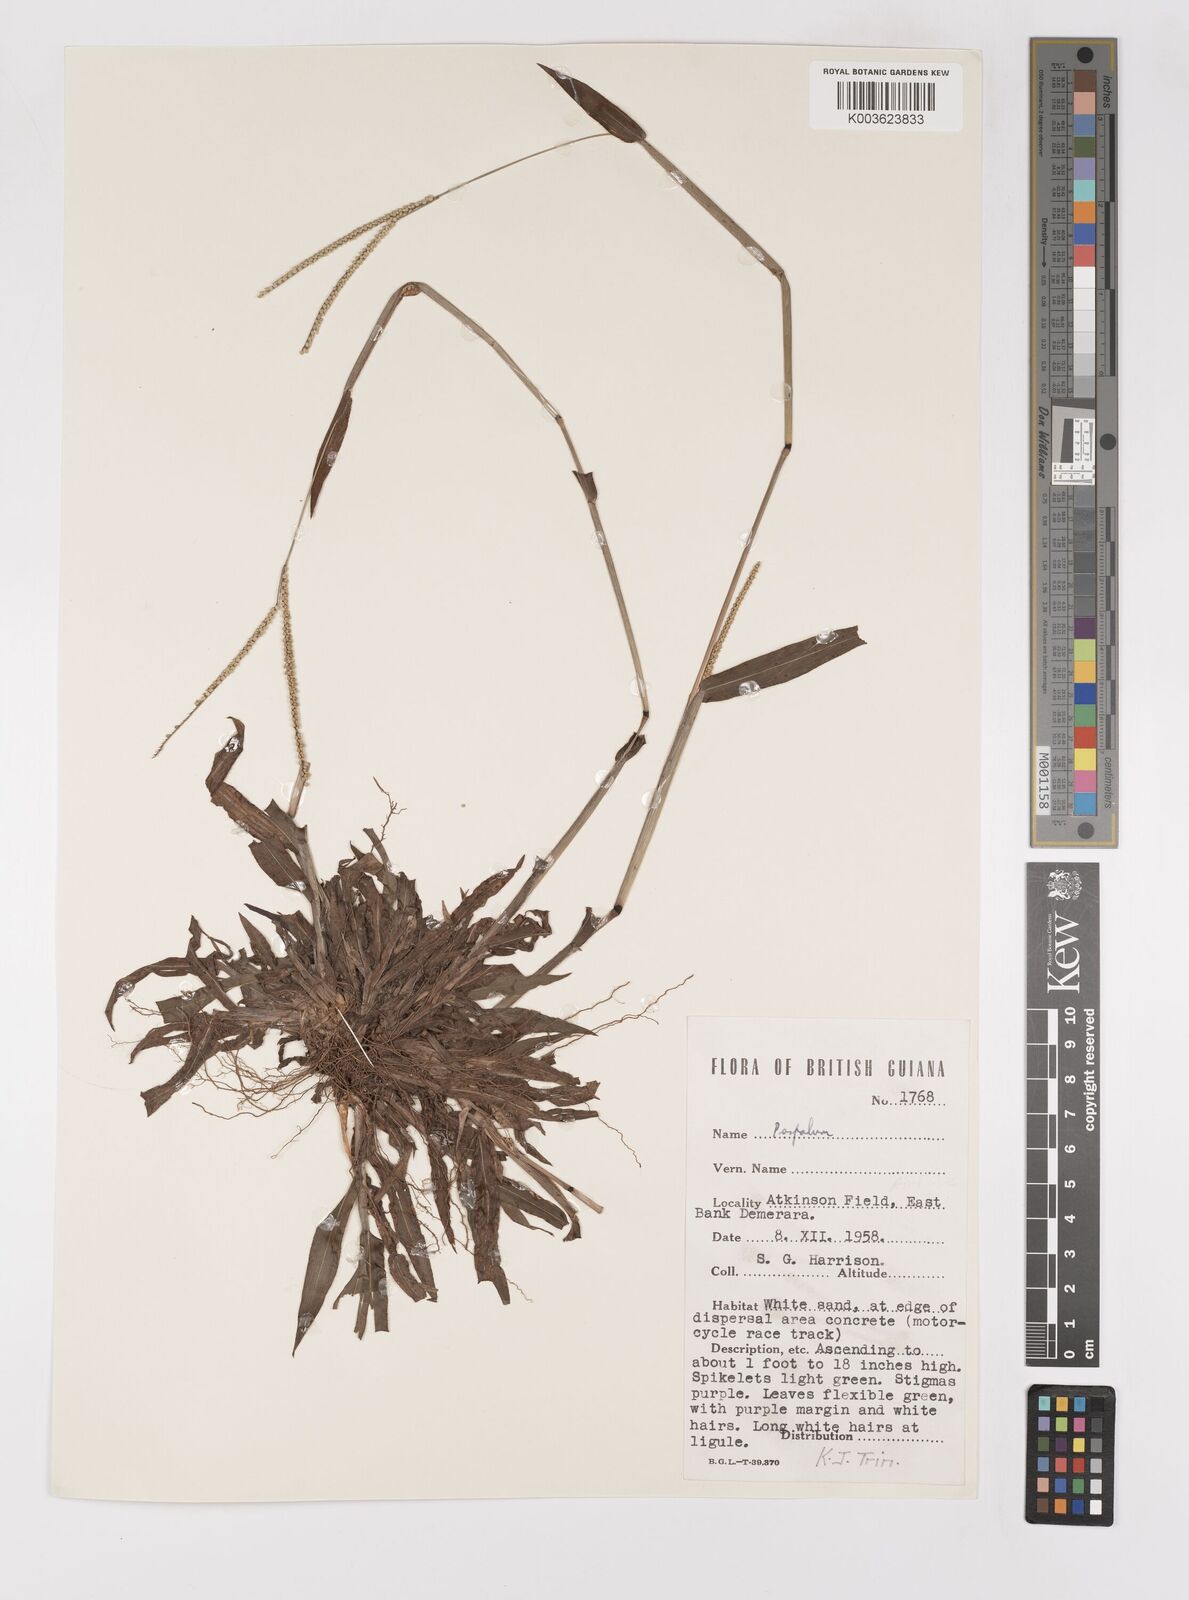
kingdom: Plantae
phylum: Tracheophyta
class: Liliopsida
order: Poales
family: Poaceae
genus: Paspalum
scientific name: Paspalum arenarium
